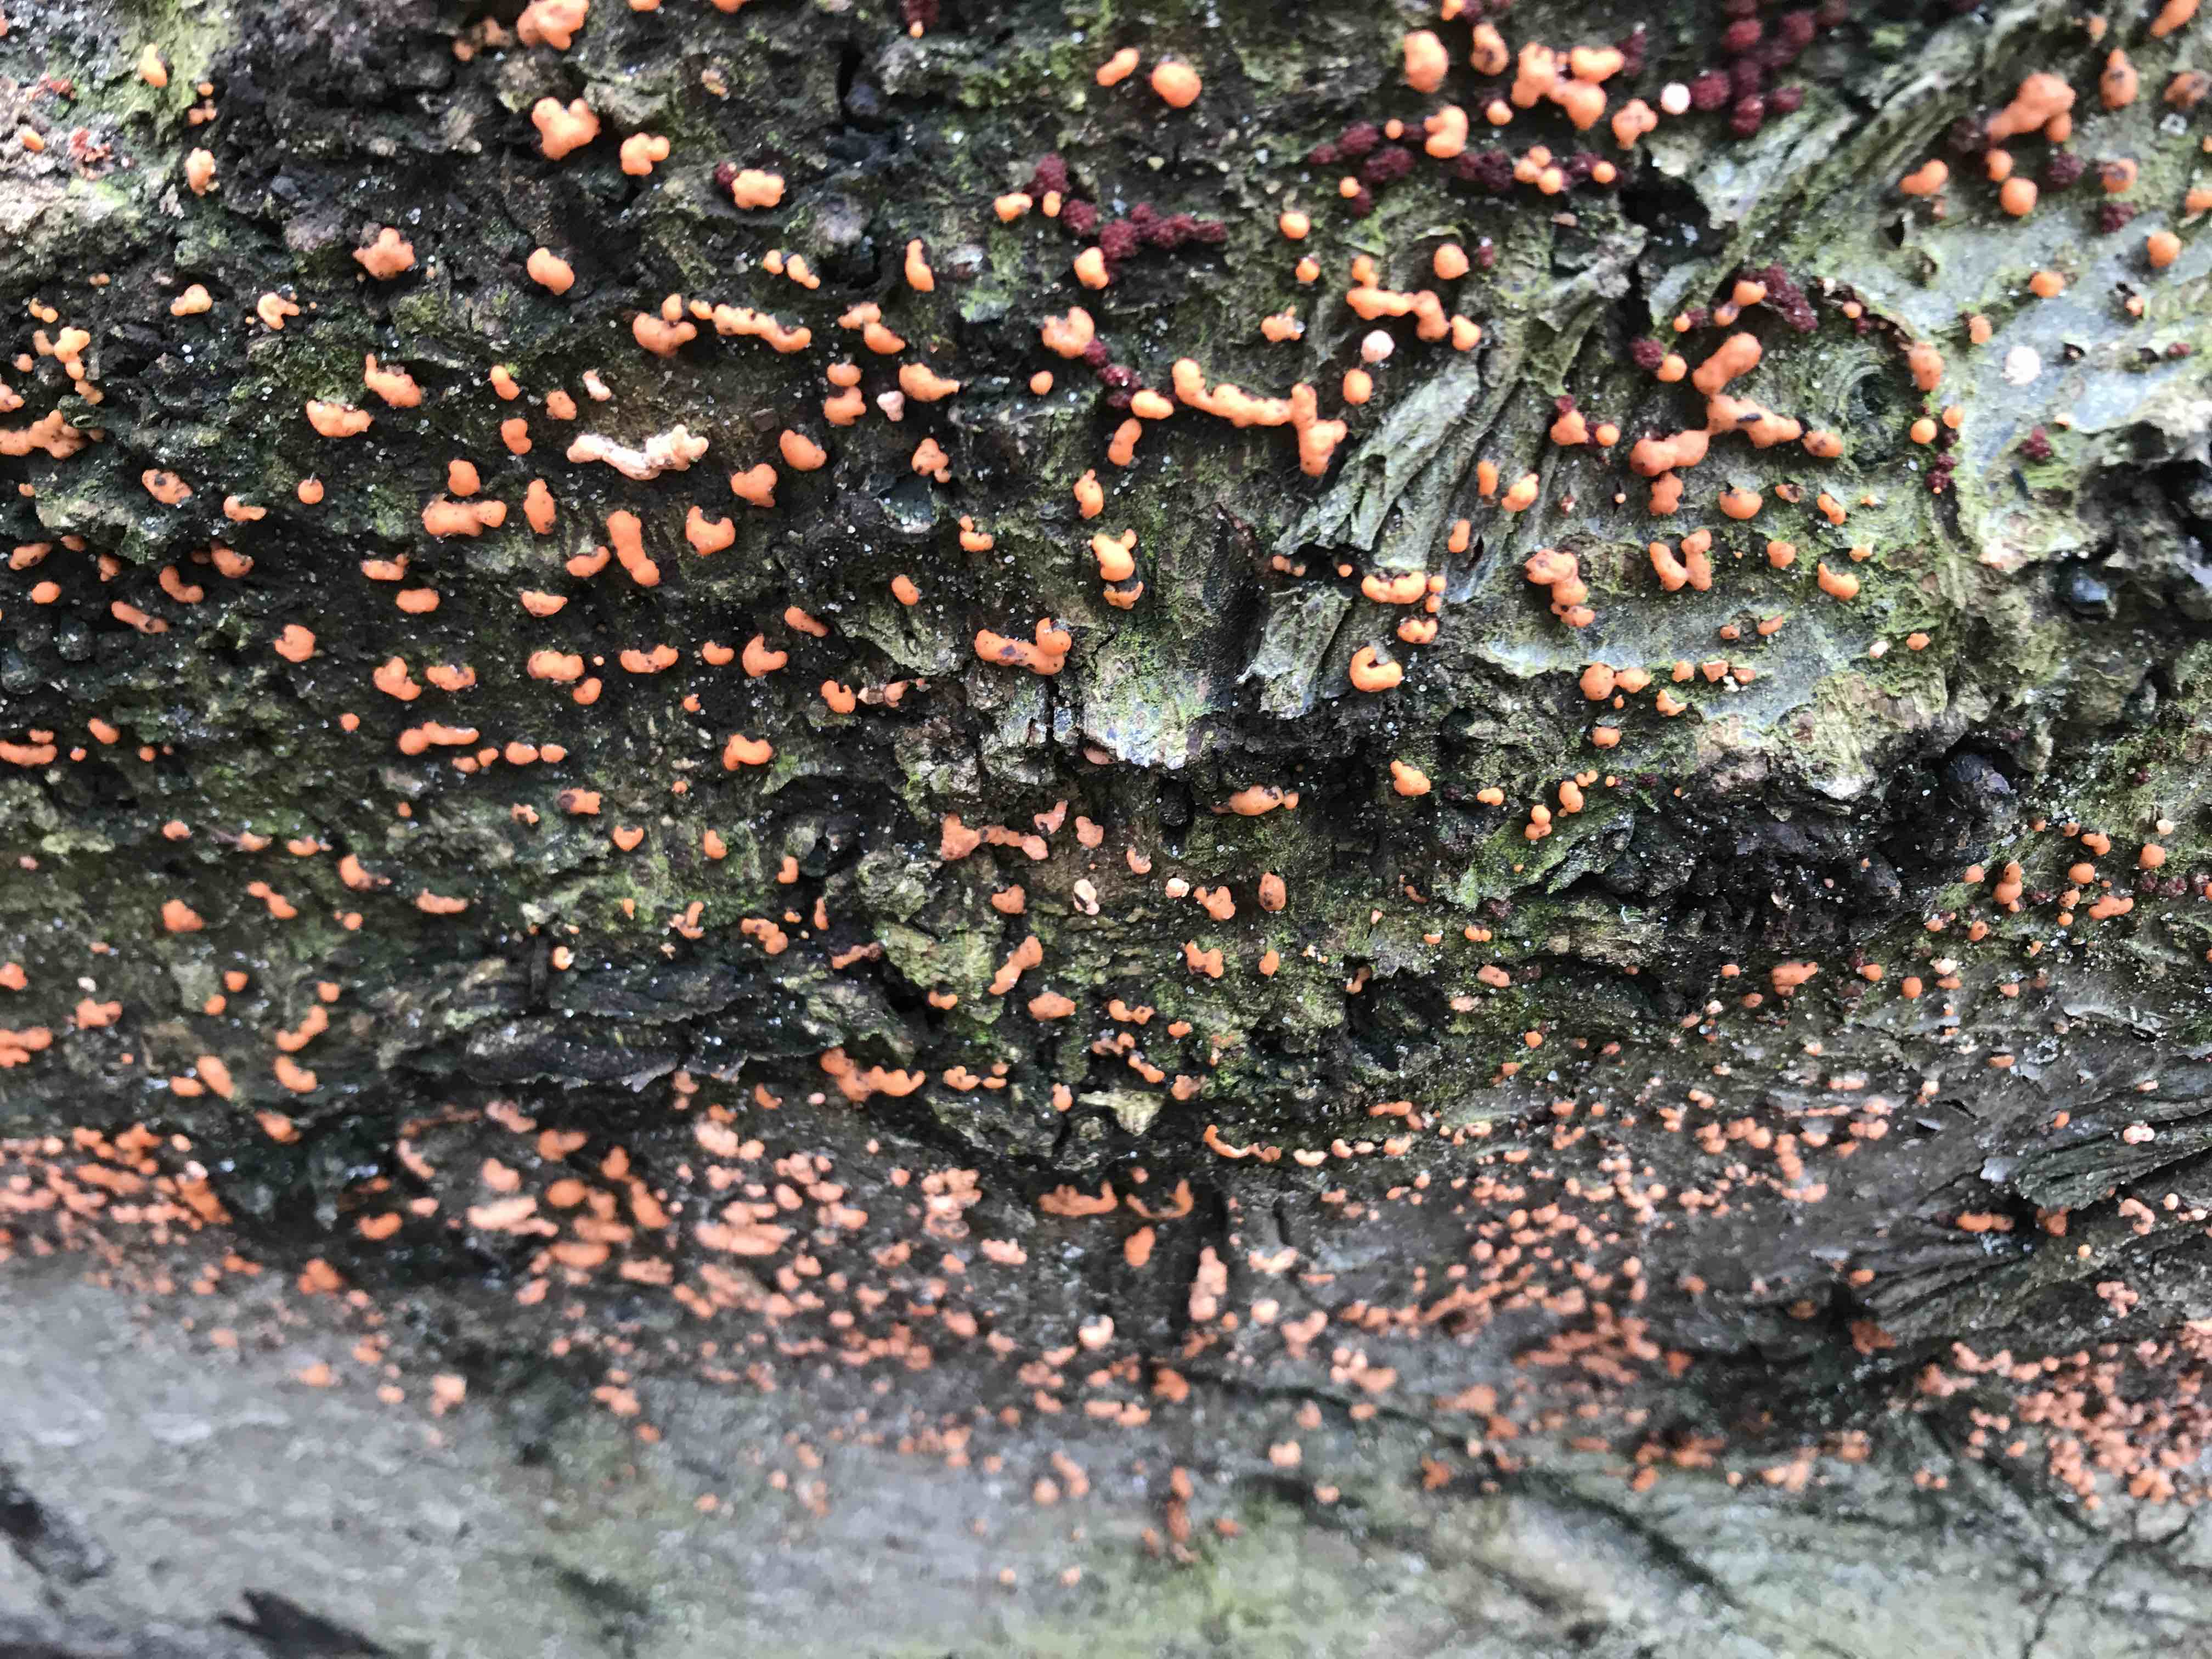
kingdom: Fungi
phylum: Ascomycota
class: Sordariomycetes
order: Hypocreales
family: Nectriaceae
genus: Nectria
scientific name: Nectria cinnabarina
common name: almindelig cinnobersvamp
